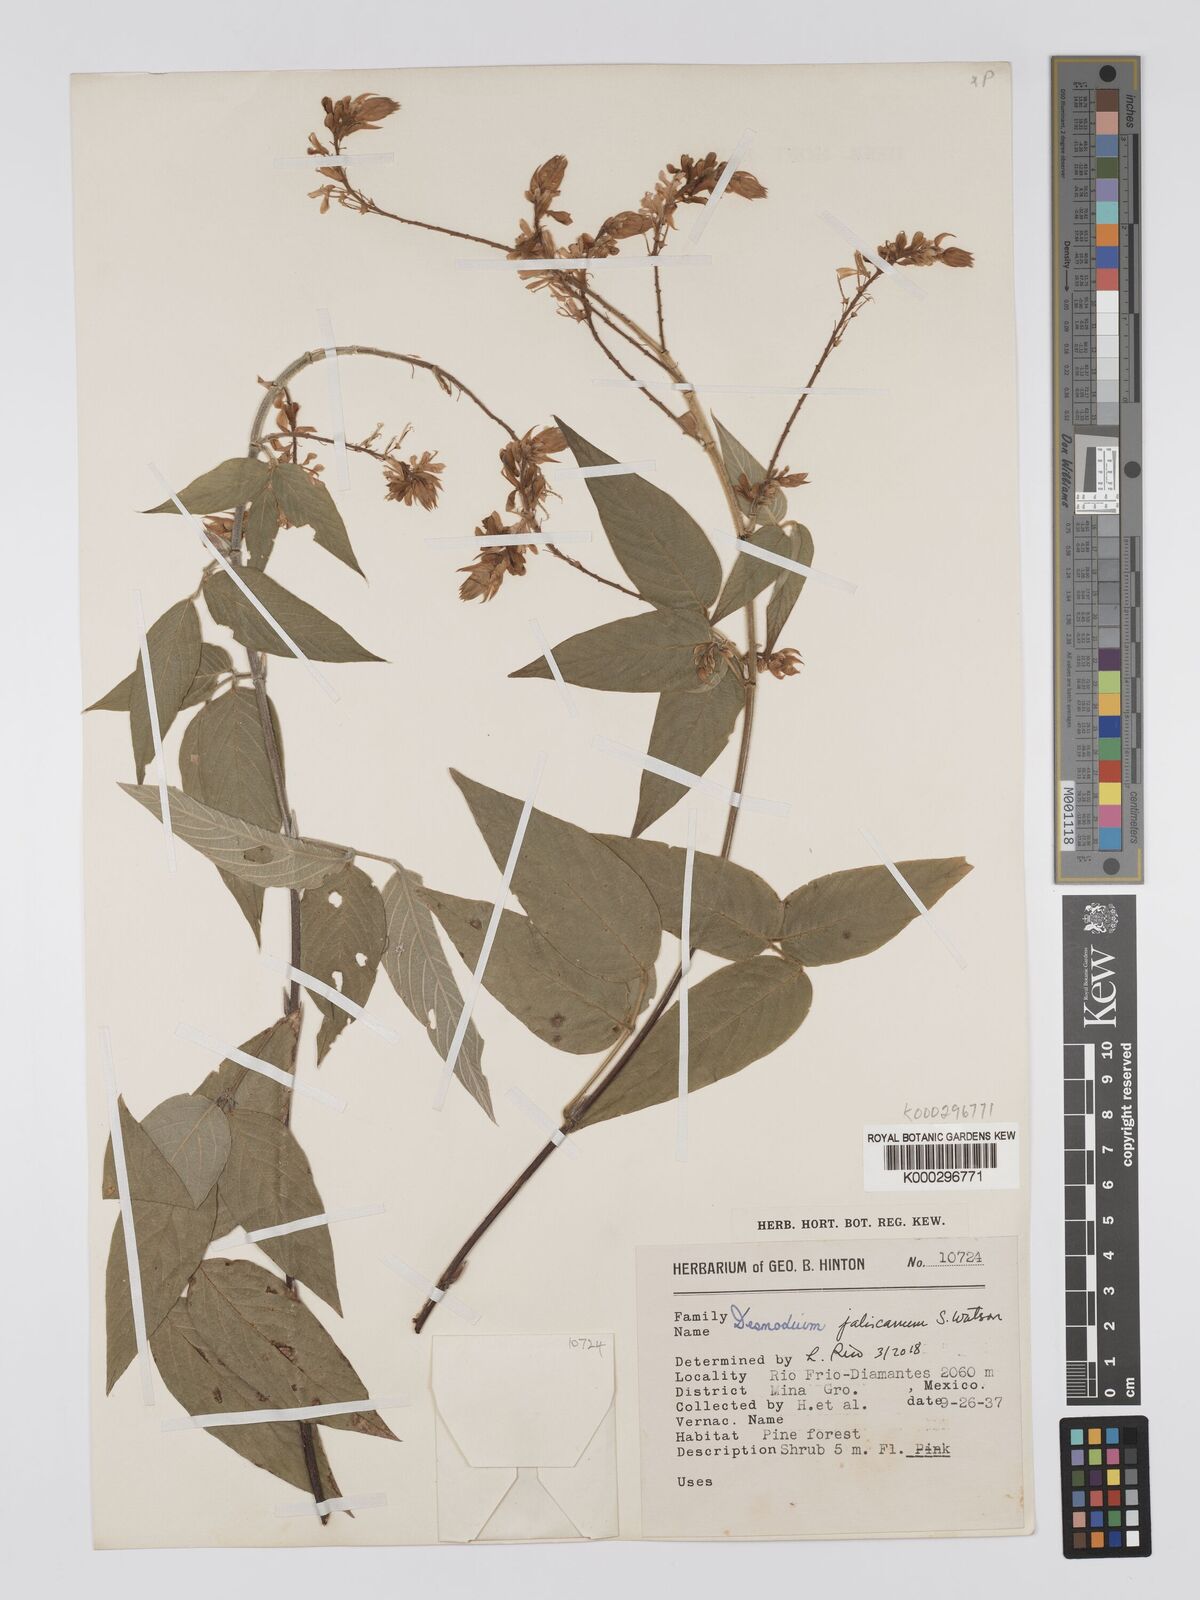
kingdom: Plantae
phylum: Tracheophyta
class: Magnoliopsida
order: Fabales
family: Fabaceae
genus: Desmodium
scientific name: Desmodium jaliscanum
